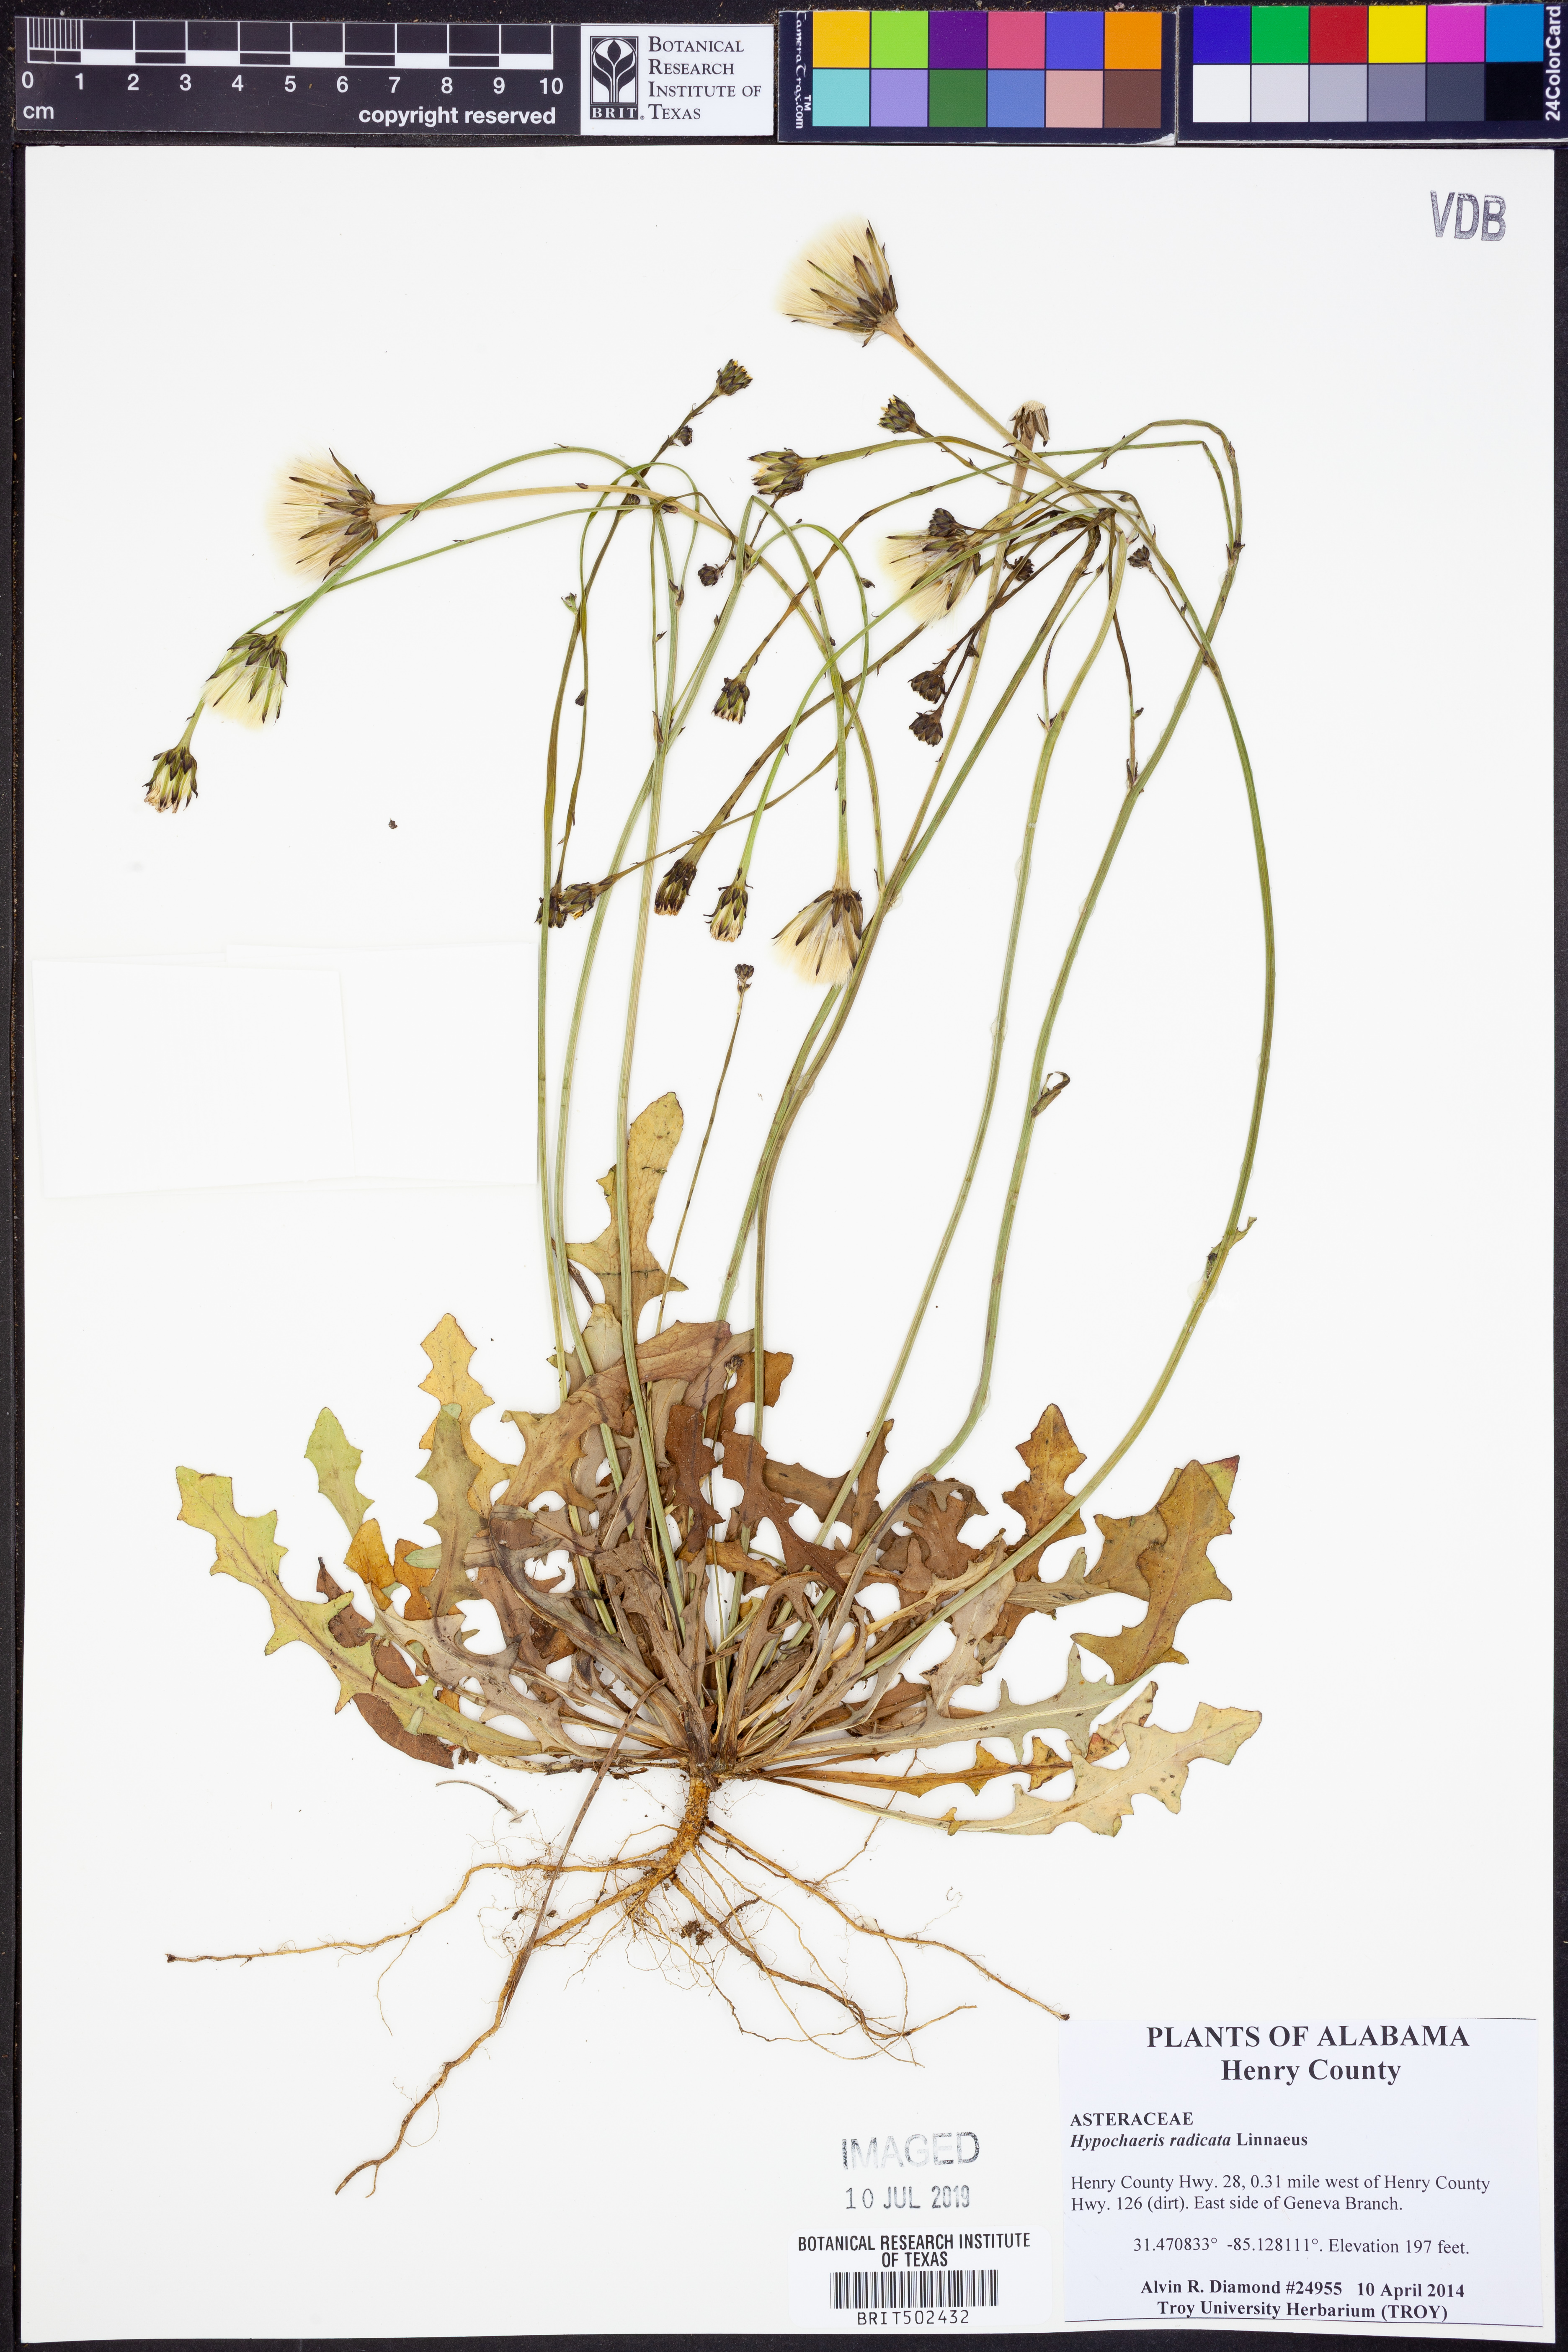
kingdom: Plantae
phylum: Tracheophyta
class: Magnoliopsida
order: Asterales
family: Asteraceae
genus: Hypochaeris
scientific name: Hypochaeris radicata
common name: Flatweed
